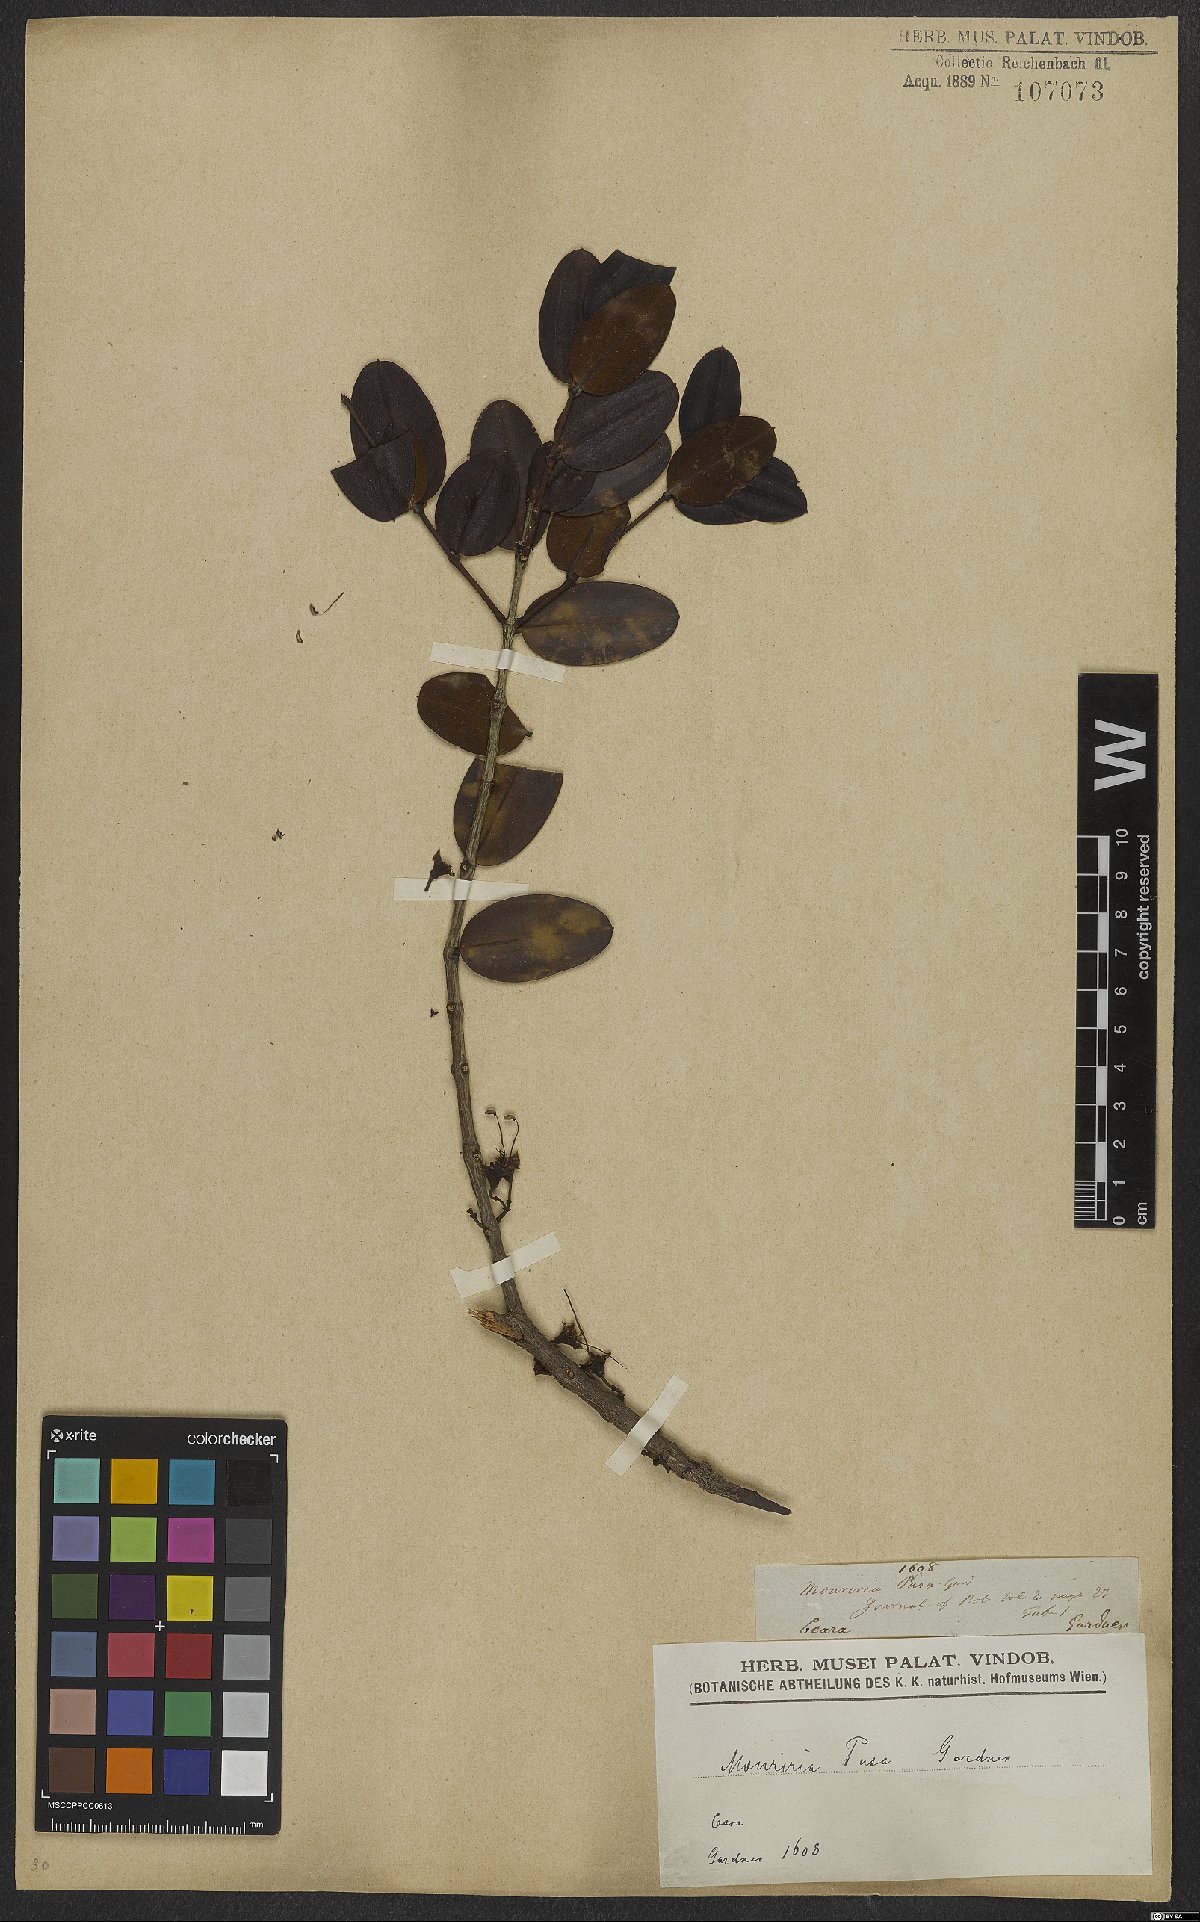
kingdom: Plantae
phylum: Tracheophyta
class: Magnoliopsida
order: Myrtales
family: Melastomataceae
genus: Mouriri
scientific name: Mouriri pusa
